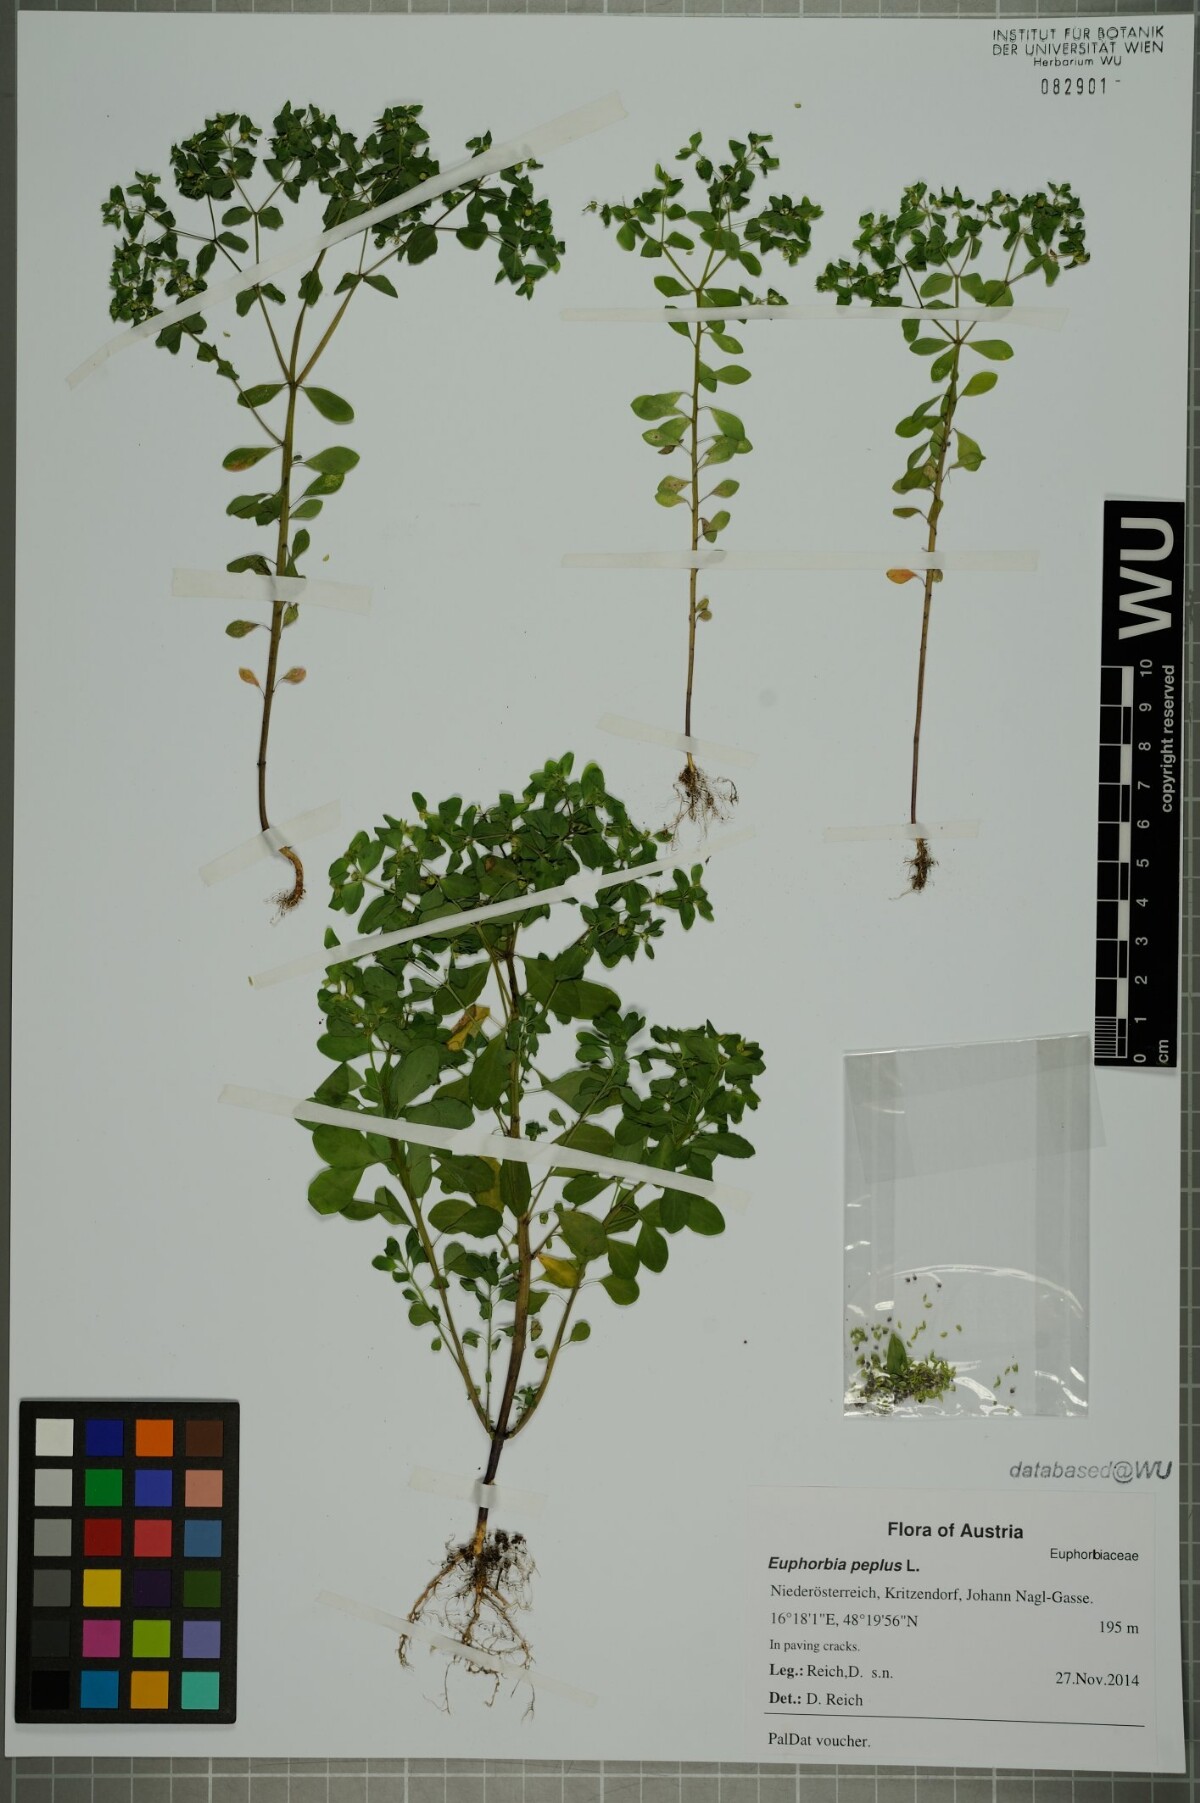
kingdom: Plantae
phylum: Tracheophyta
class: Magnoliopsida
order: Malpighiales
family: Euphorbiaceae
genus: Euphorbia
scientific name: Euphorbia peplus
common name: Petty spurge
